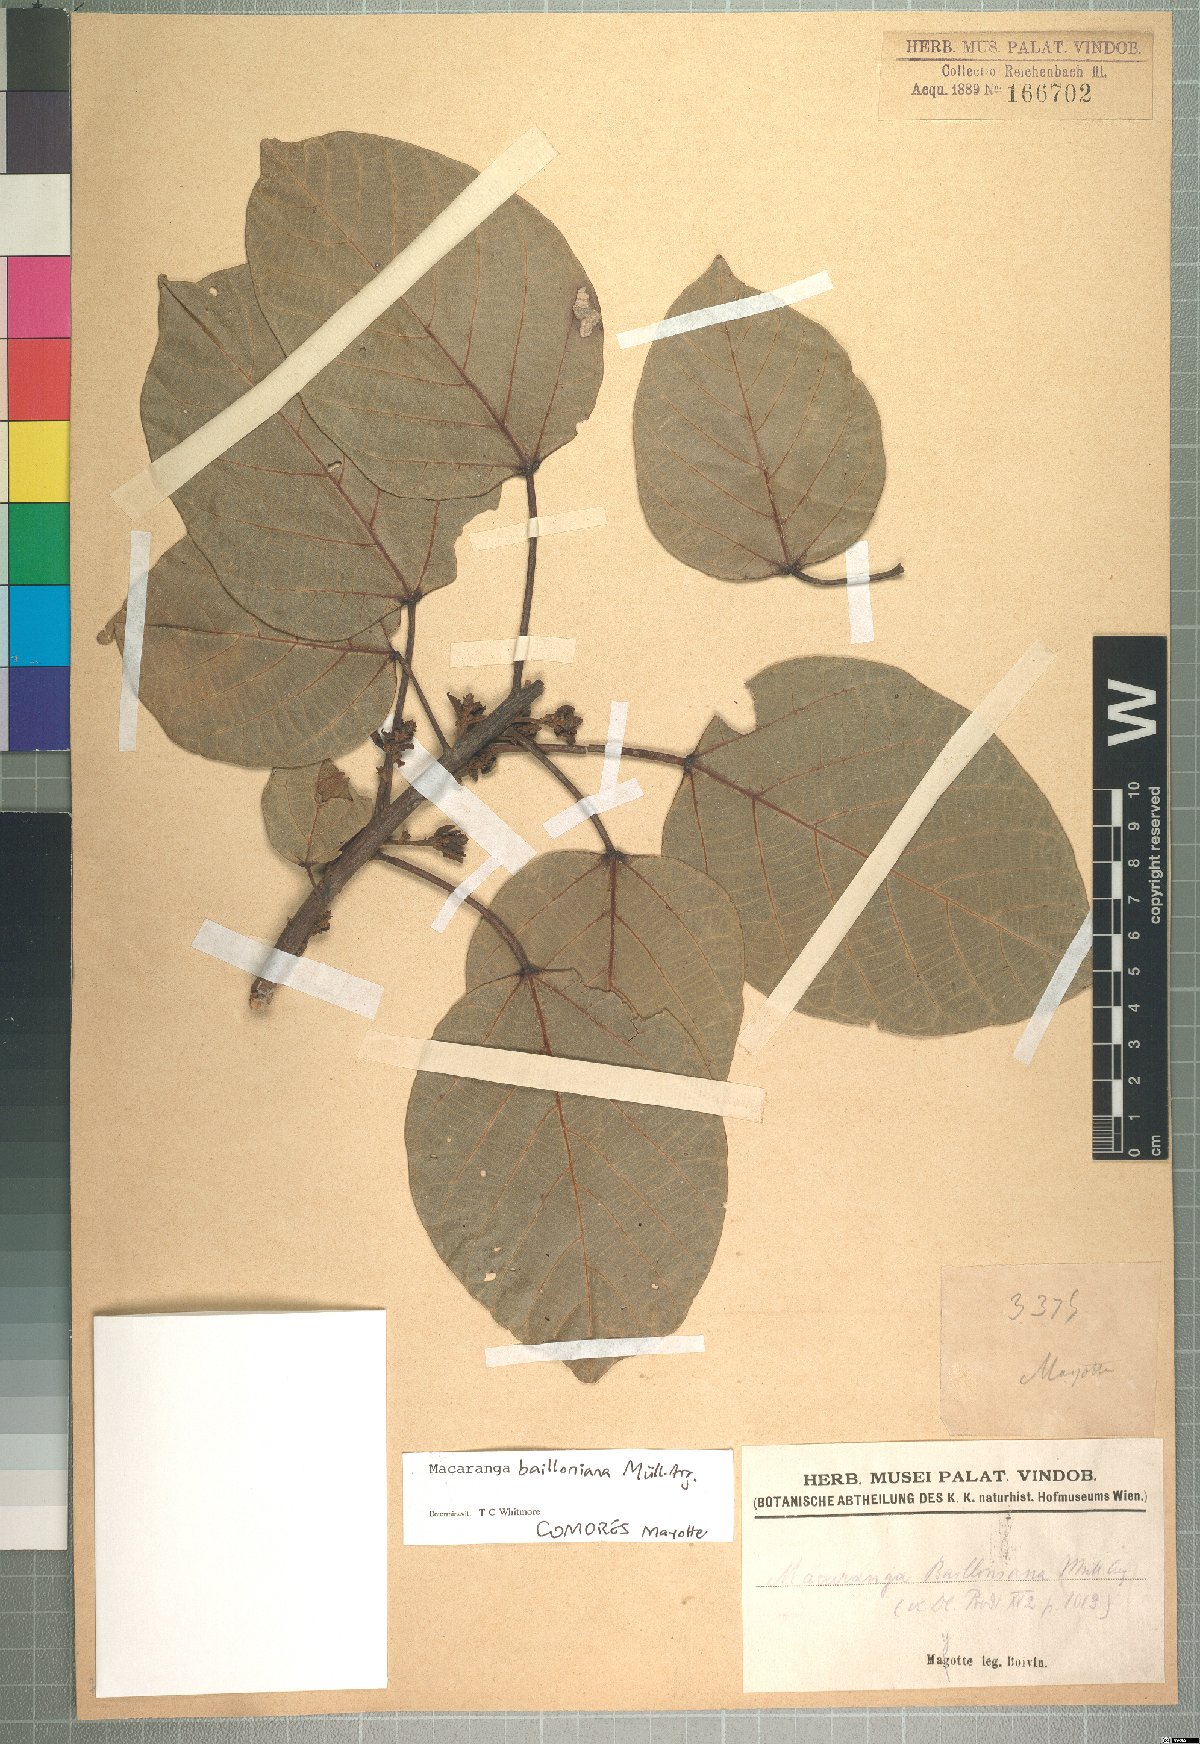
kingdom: Plantae
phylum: Tracheophyta
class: Magnoliopsida
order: Malpighiales
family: Euphorbiaceae
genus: Macaranga
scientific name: Macaranga bailloniana
